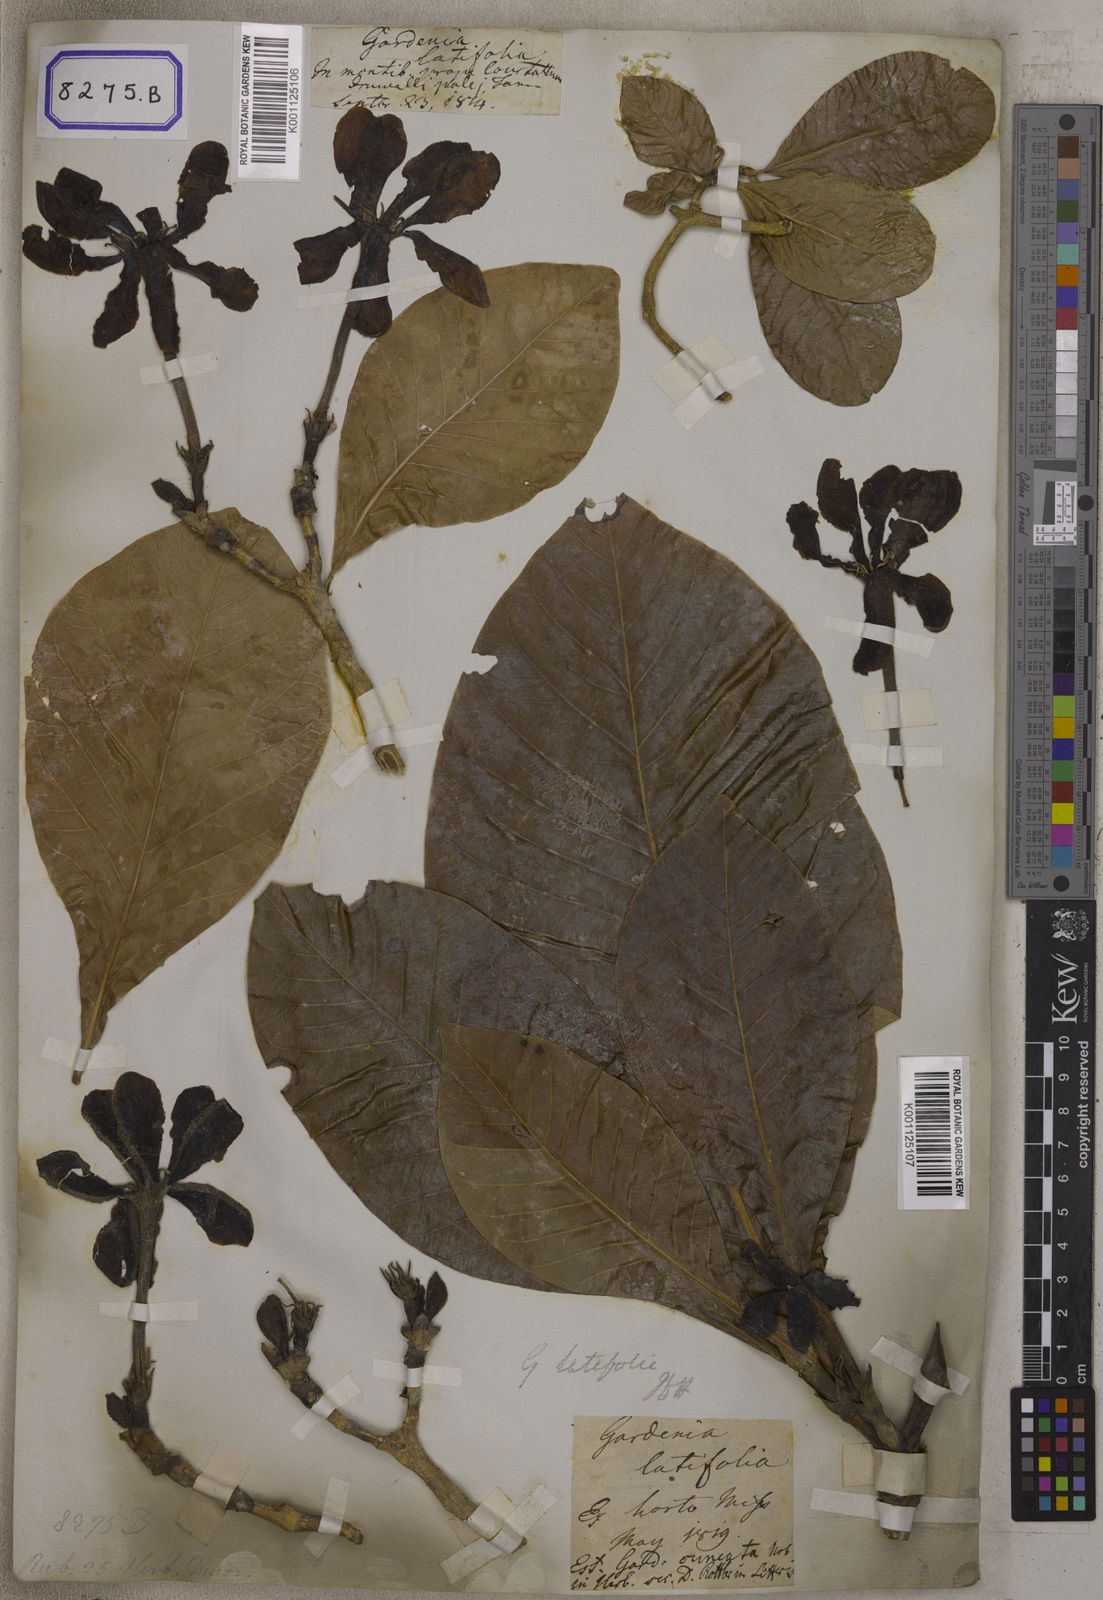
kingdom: Plantae
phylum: Tracheophyta
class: Magnoliopsida
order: Gentianales
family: Rubiaceae
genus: Gardenia
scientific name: Gardenia
